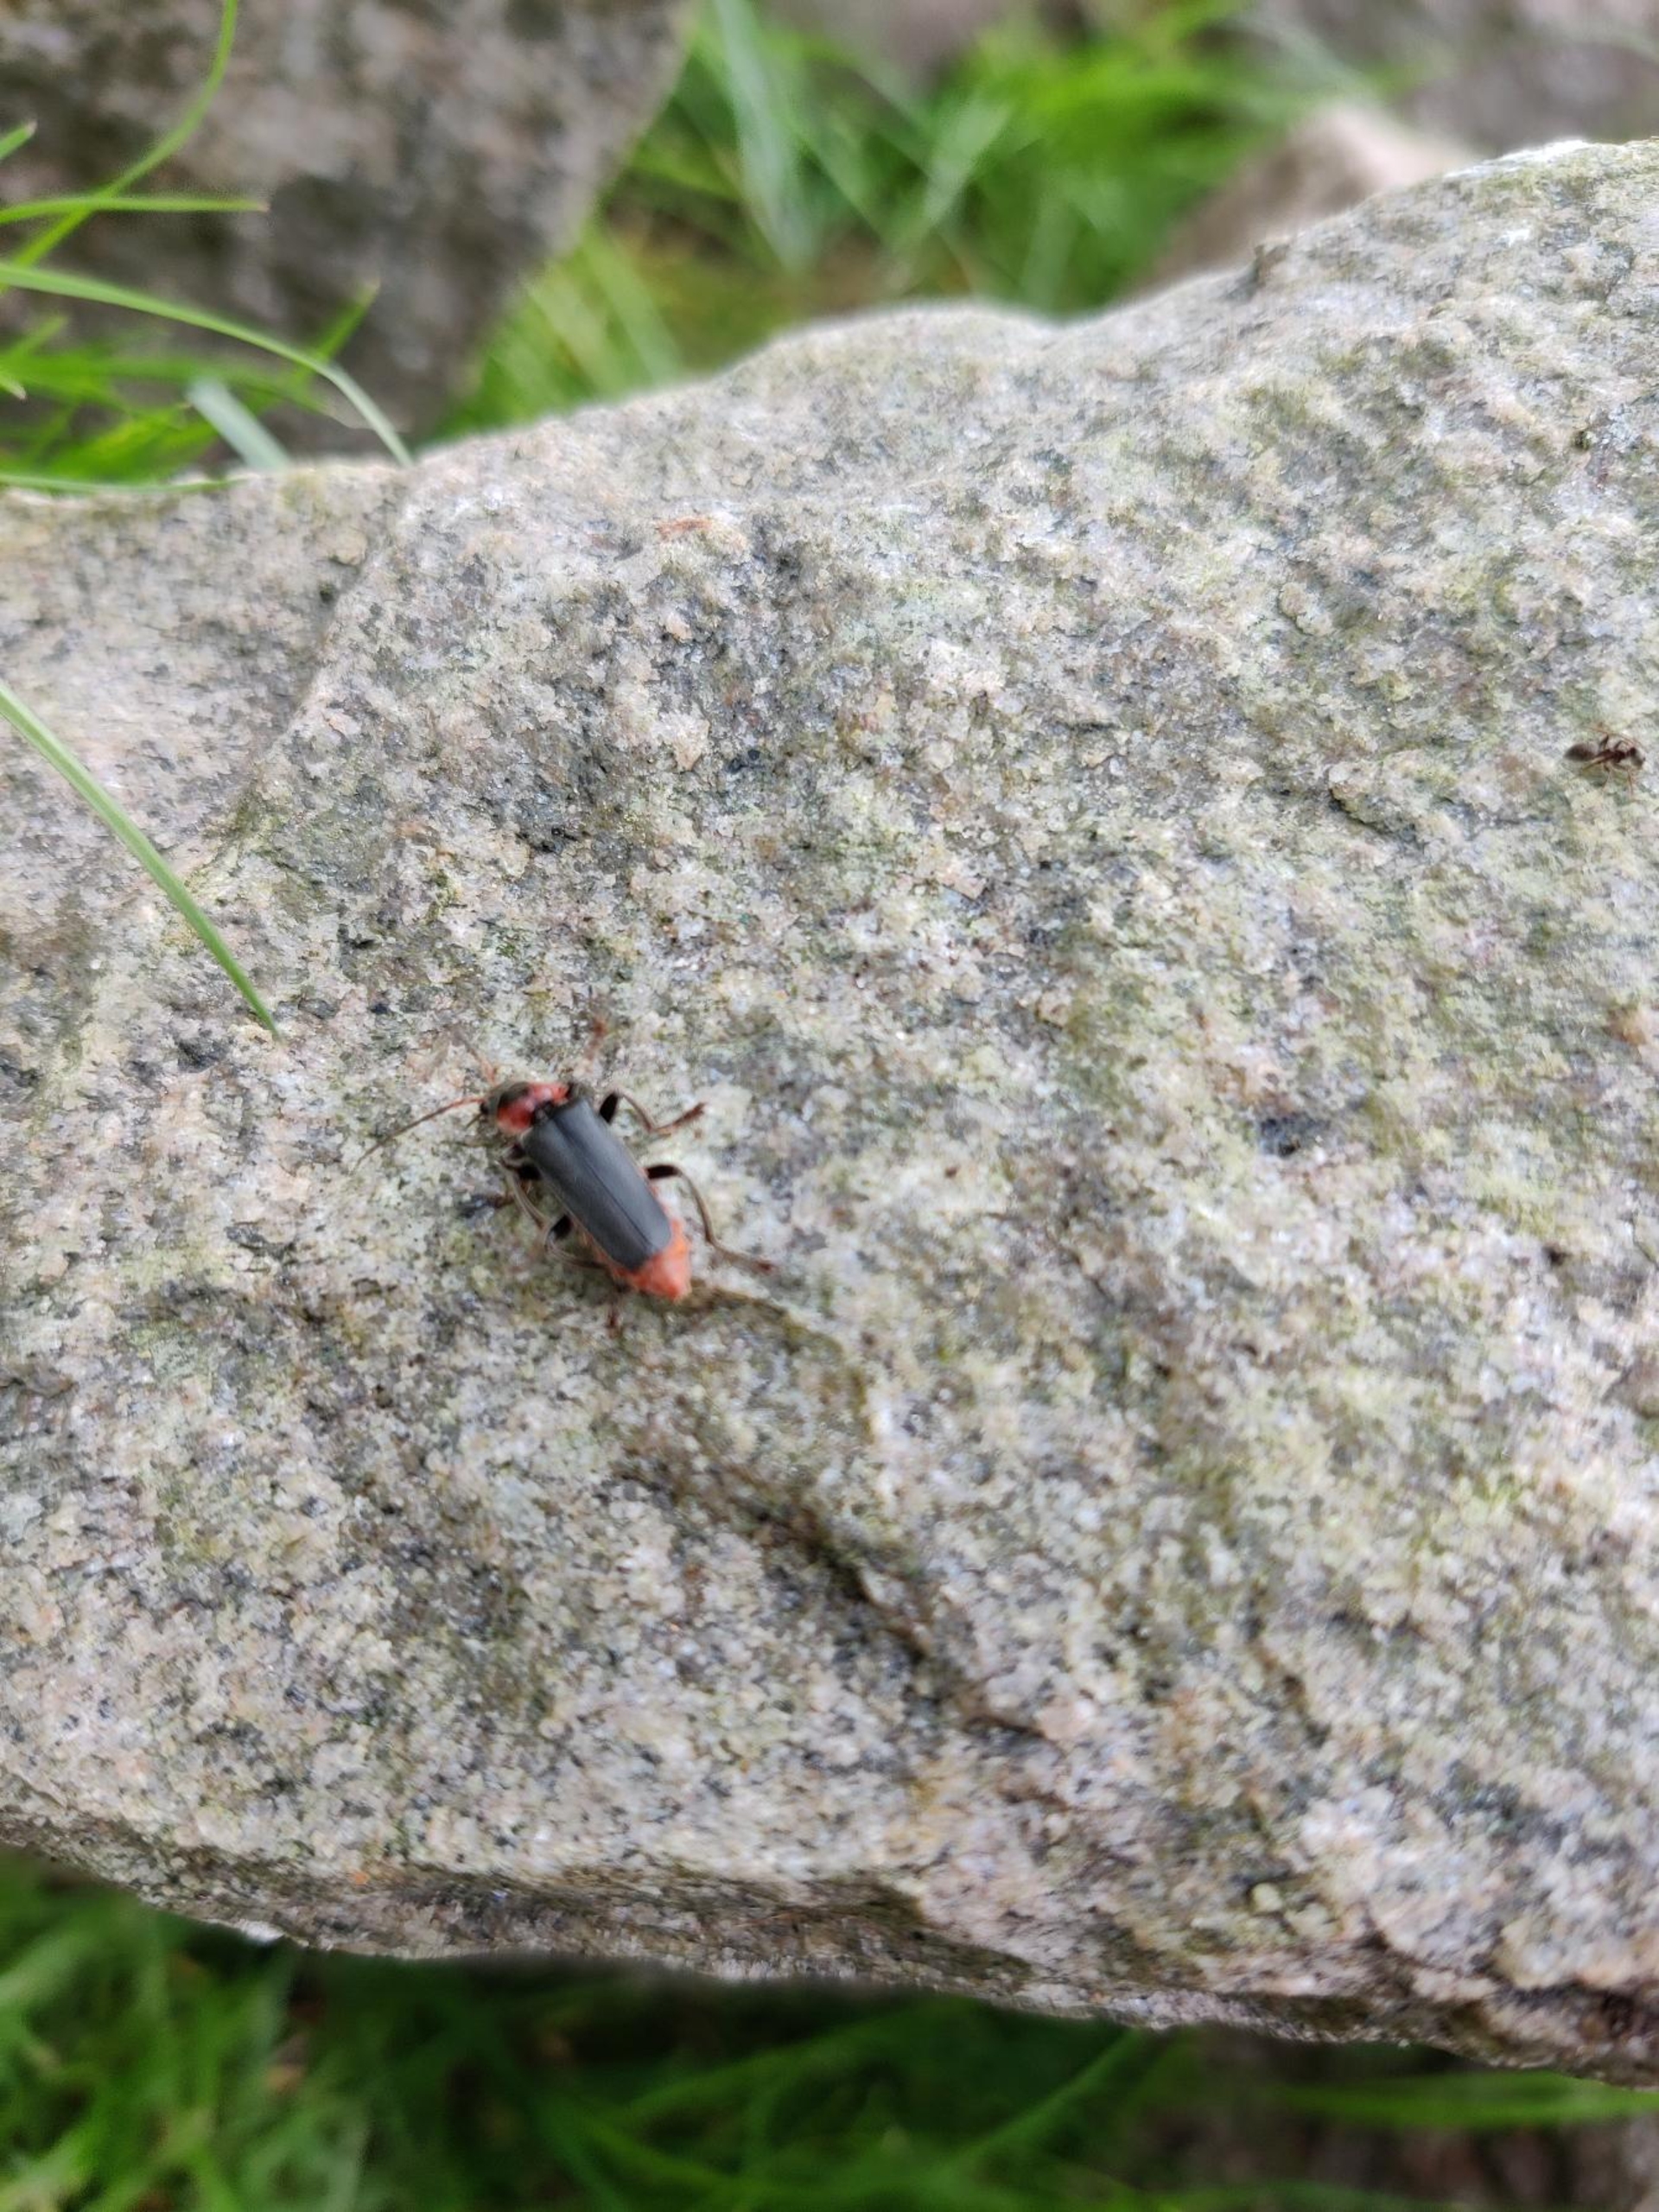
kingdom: Animalia
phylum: Arthropoda
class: Insecta
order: Coleoptera
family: Cantharidae
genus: Cantharis
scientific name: Cantharis fusca
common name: Stor blødvinge
